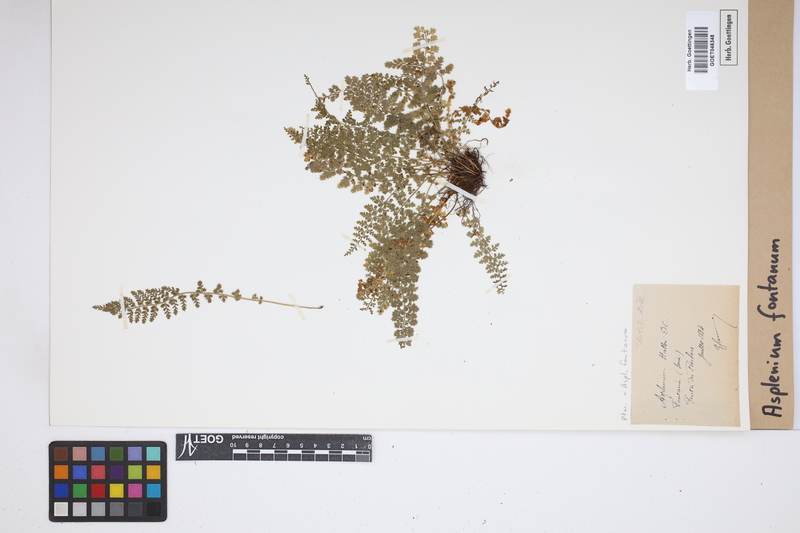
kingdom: Plantae
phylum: Tracheophyta
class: Polypodiopsida
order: Polypodiales
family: Aspleniaceae
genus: Asplenium
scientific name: Asplenium fontanum
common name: Fountain spleenwort
